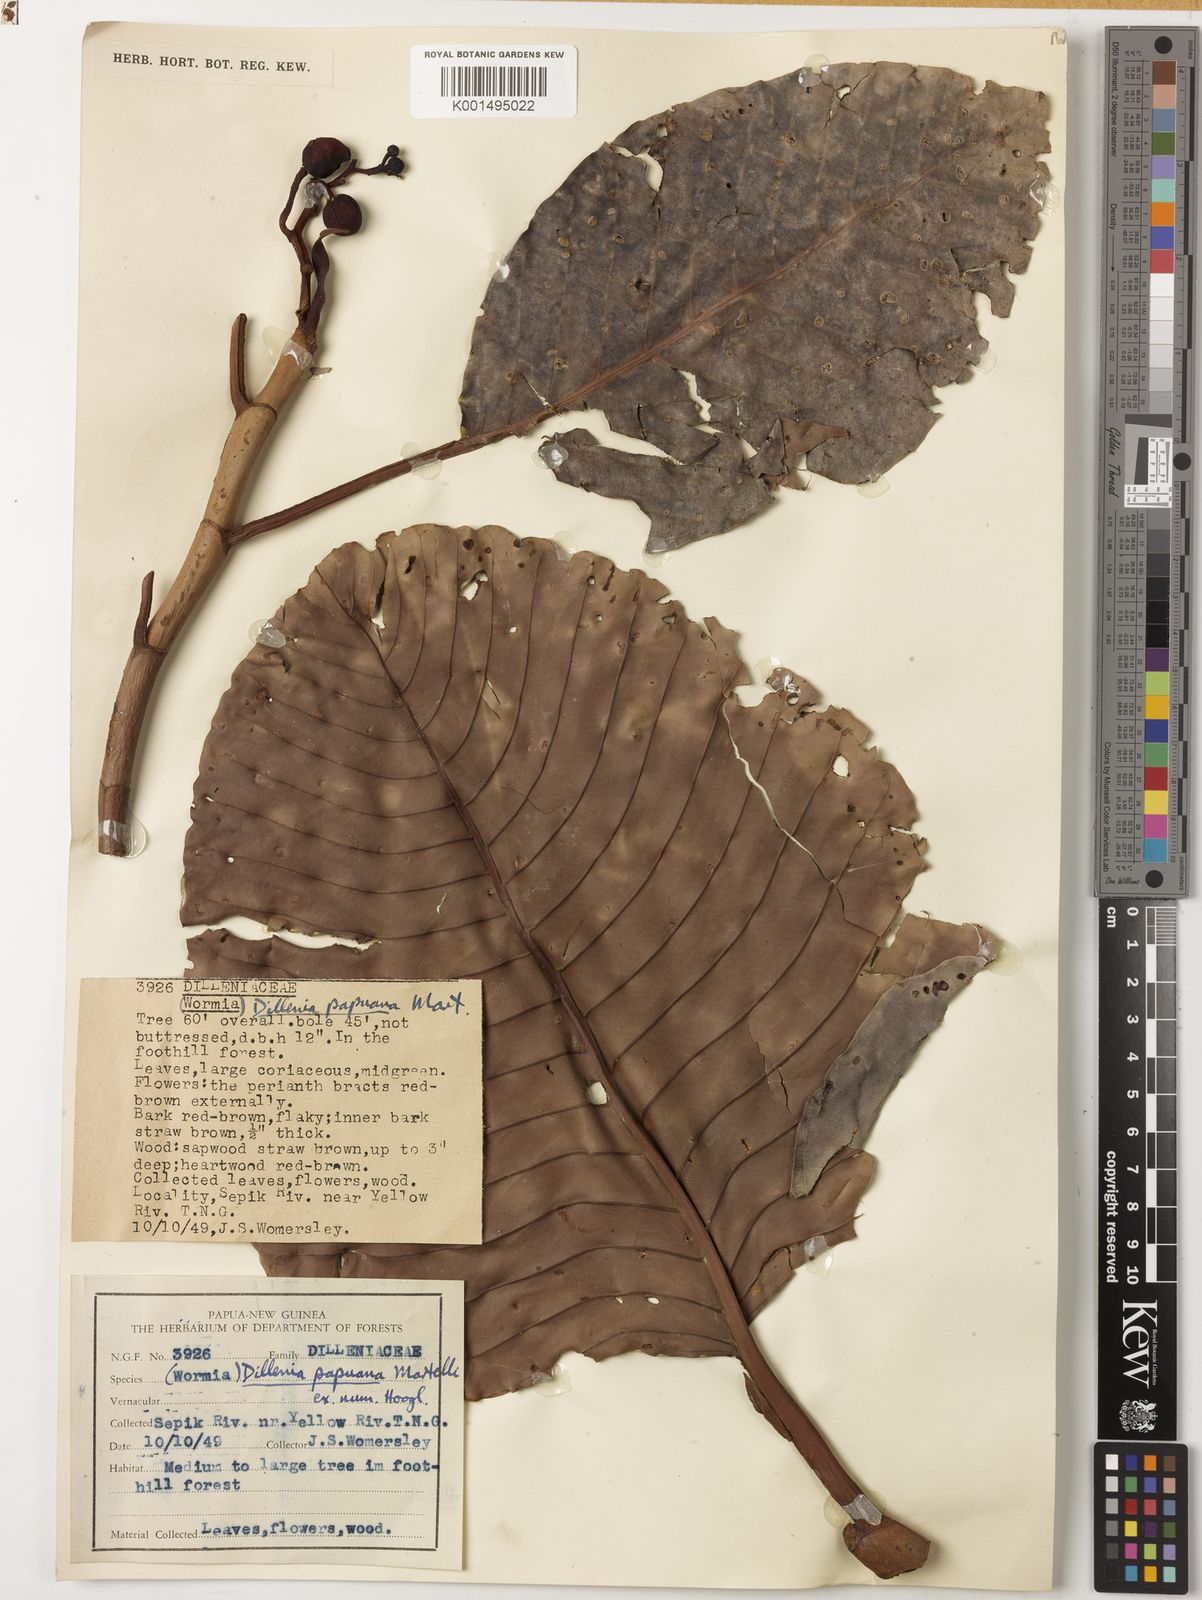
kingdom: Plantae
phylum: Tracheophyta
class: Magnoliopsida
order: Dilleniales
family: Dilleniaceae
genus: Dillenia
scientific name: Dillenia papuana
